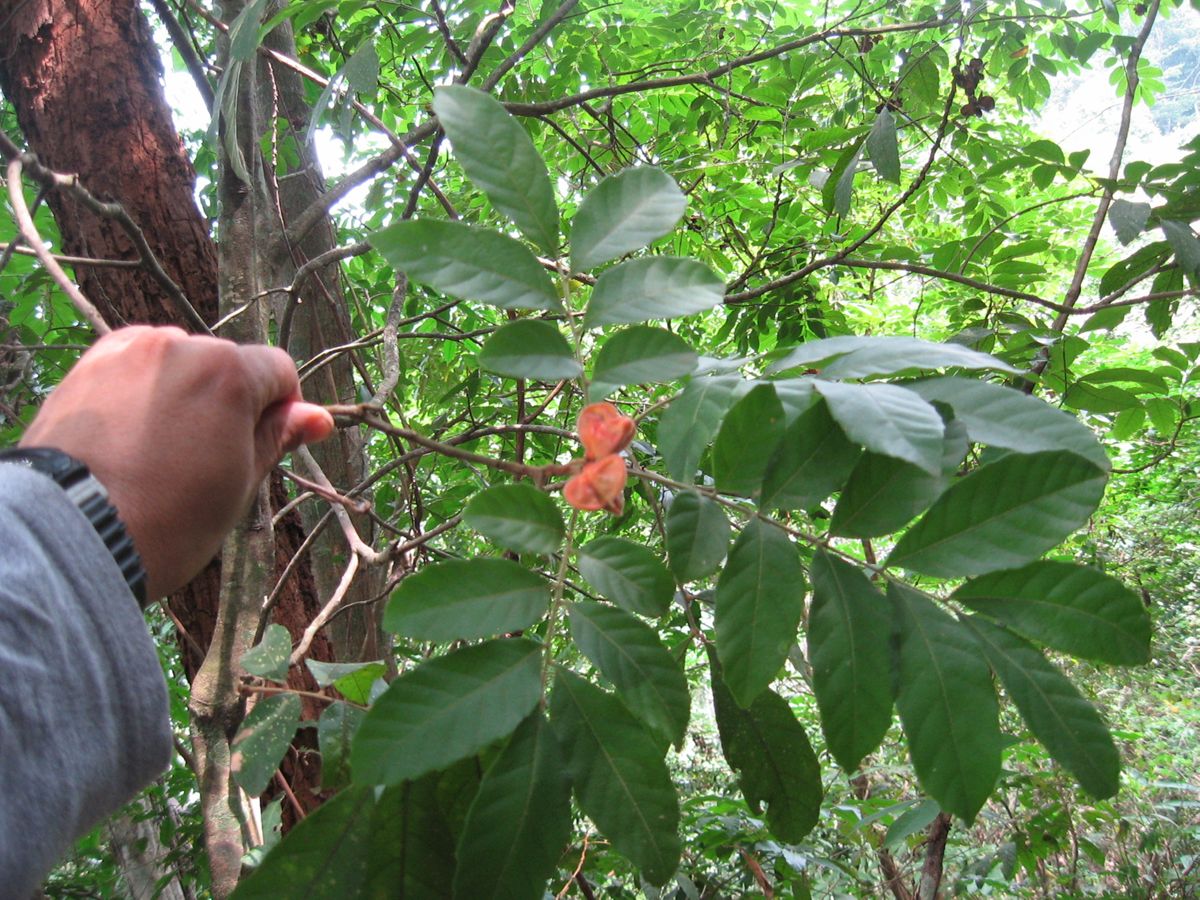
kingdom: Plantae
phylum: Tracheophyta
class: Magnoliopsida
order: Sapindales
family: Sapindaceae
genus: Cupania
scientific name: Cupania guatemalensis
